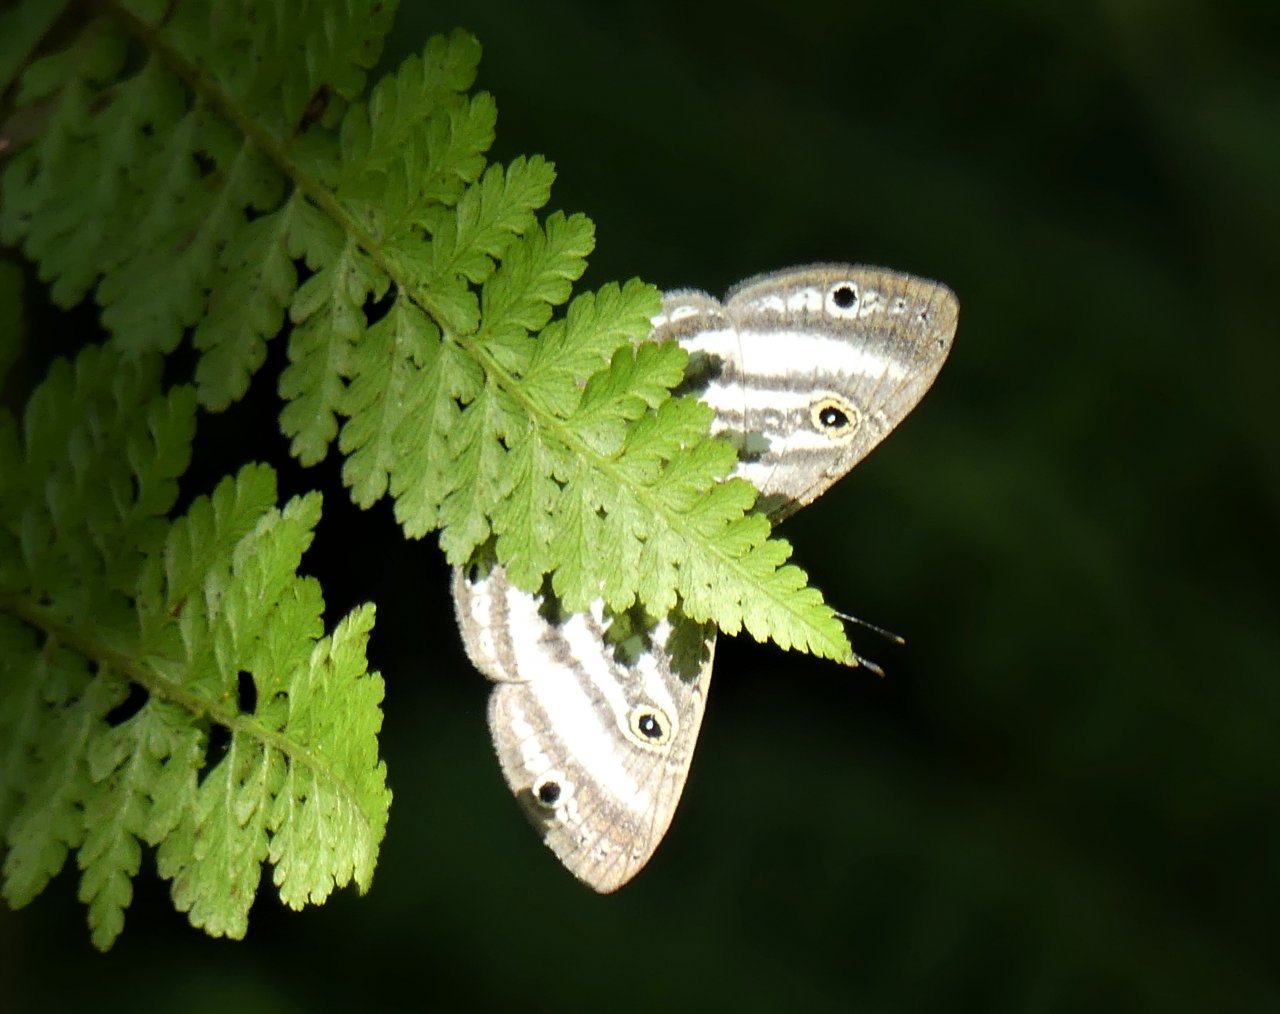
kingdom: Animalia
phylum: Arthropoda
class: Insecta
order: Lepidoptera
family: Riodinidae
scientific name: Riodinidae
